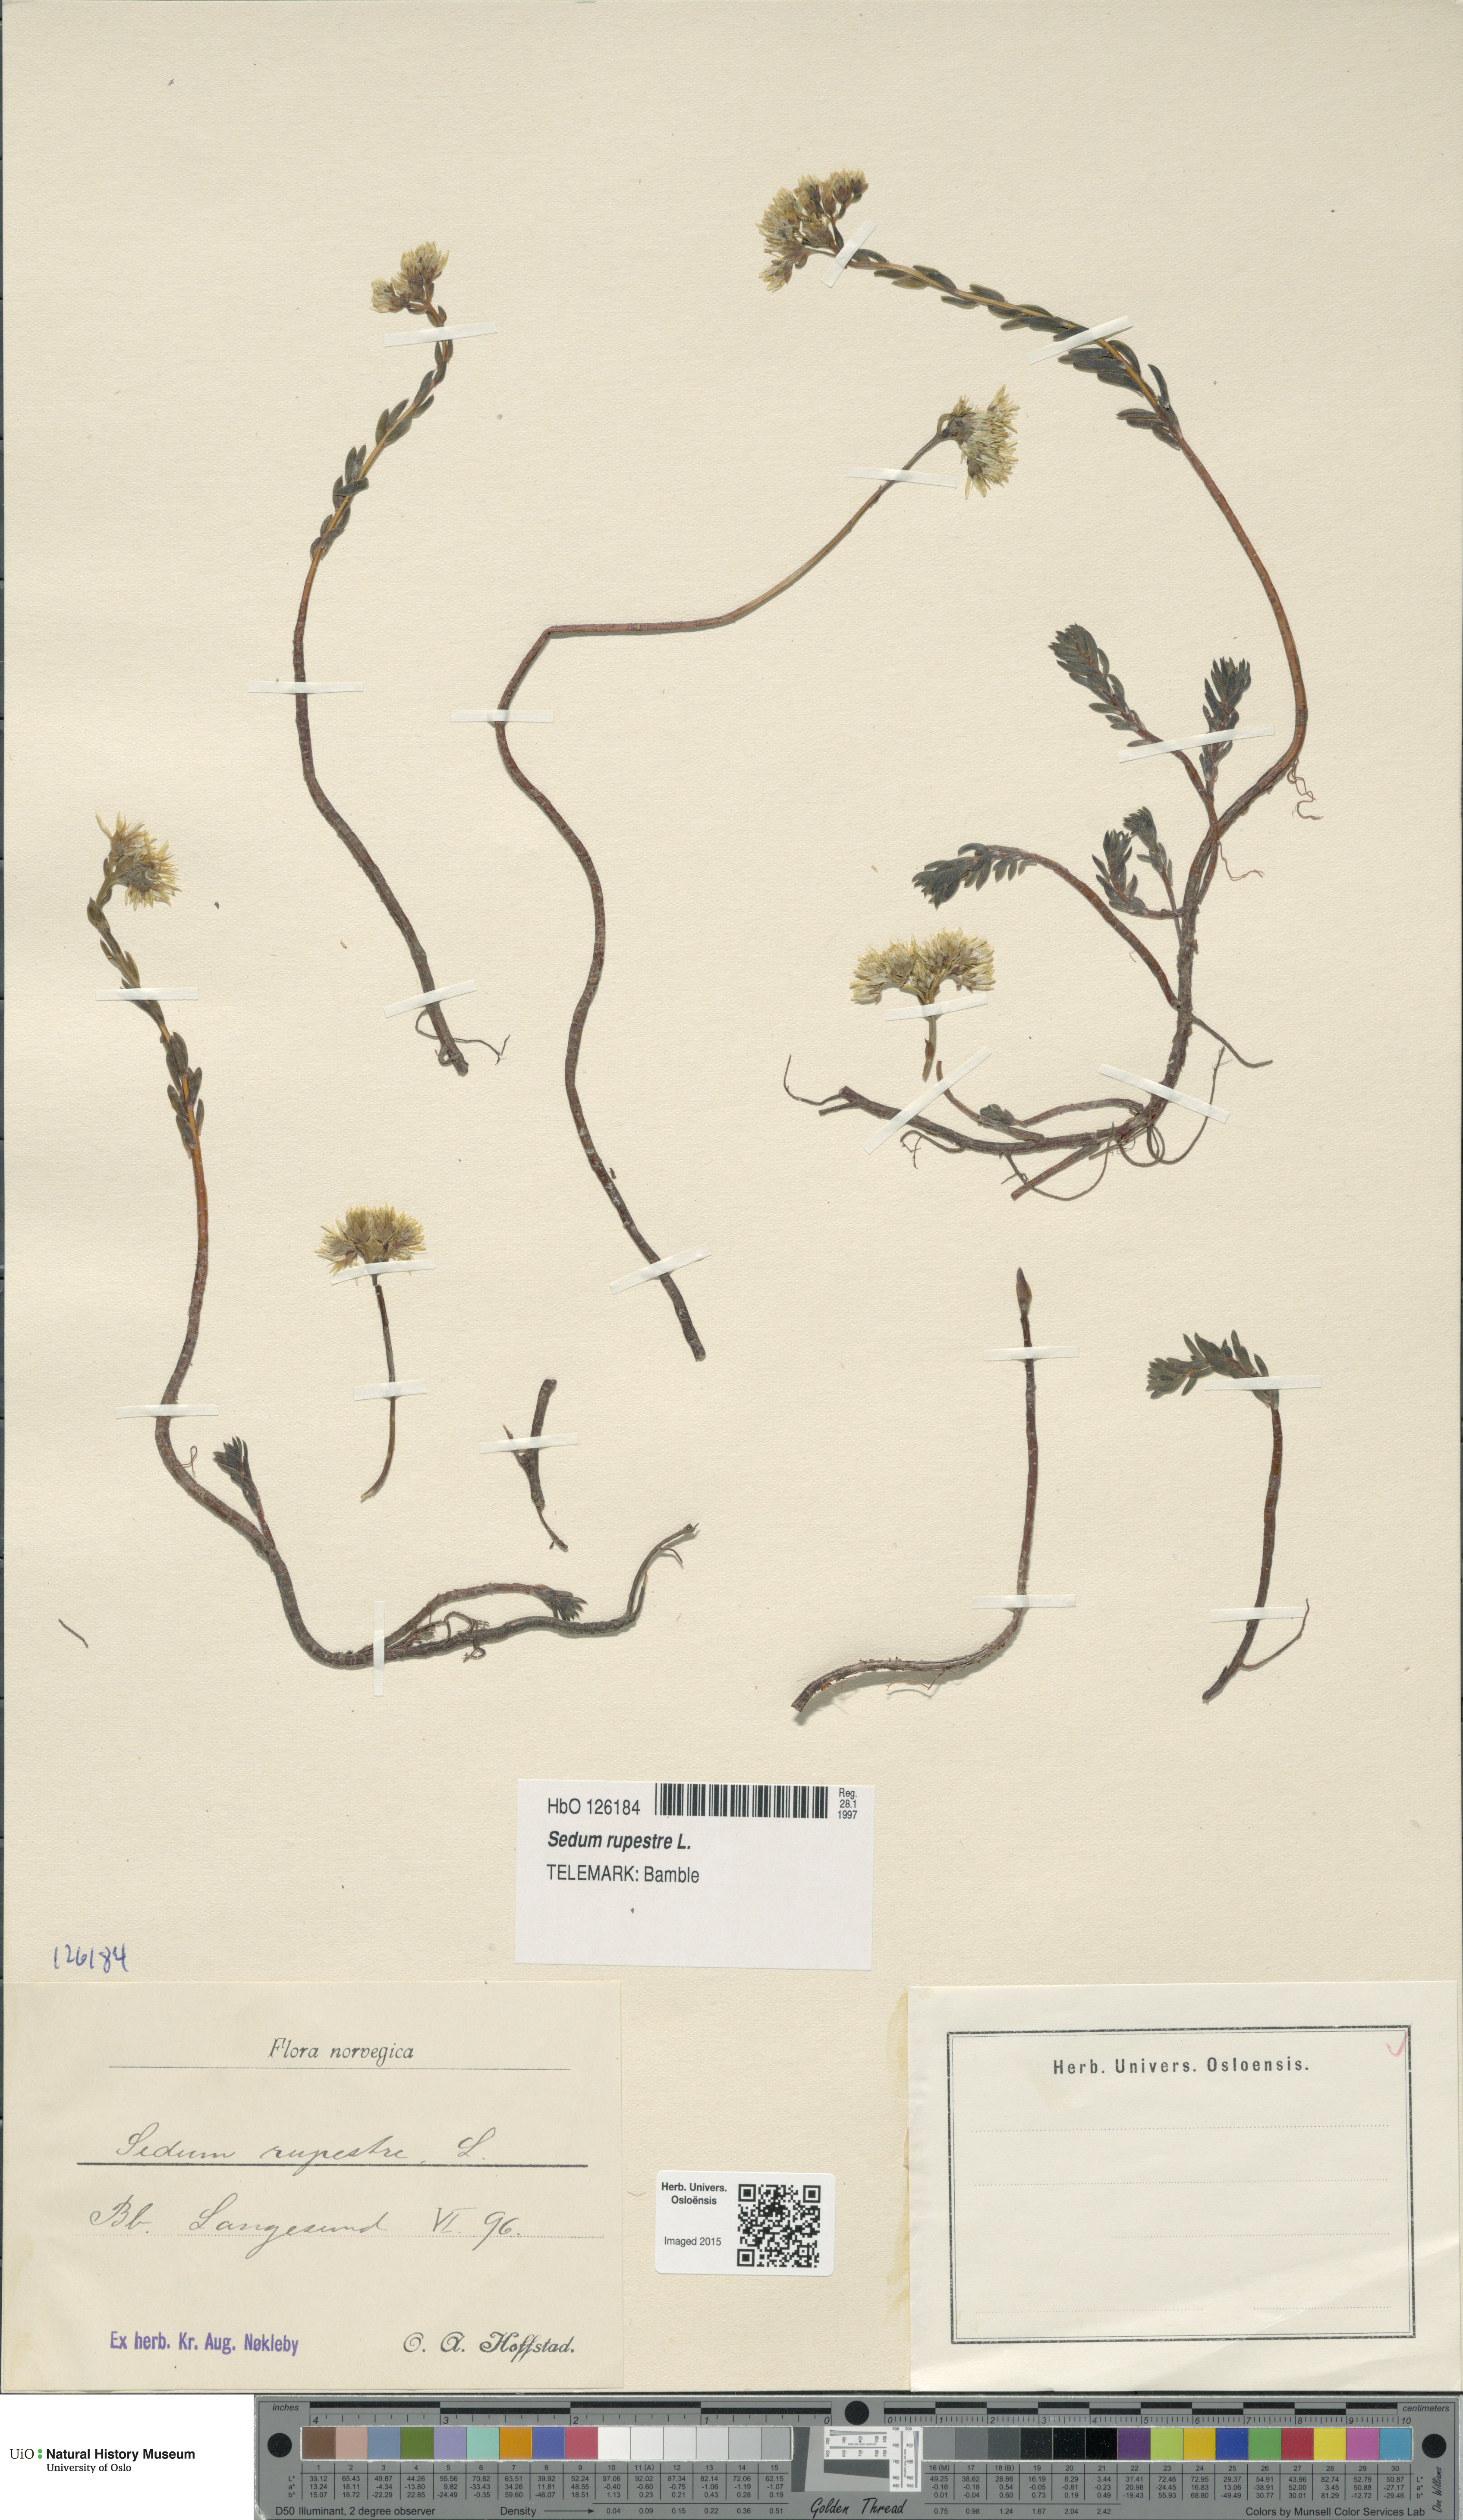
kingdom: Plantae
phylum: Tracheophyta
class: Magnoliopsida
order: Saxifragales
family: Crassulaceae
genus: Petrosedum
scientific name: Petrosedum rupestre
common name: Jenny's stonecrop
